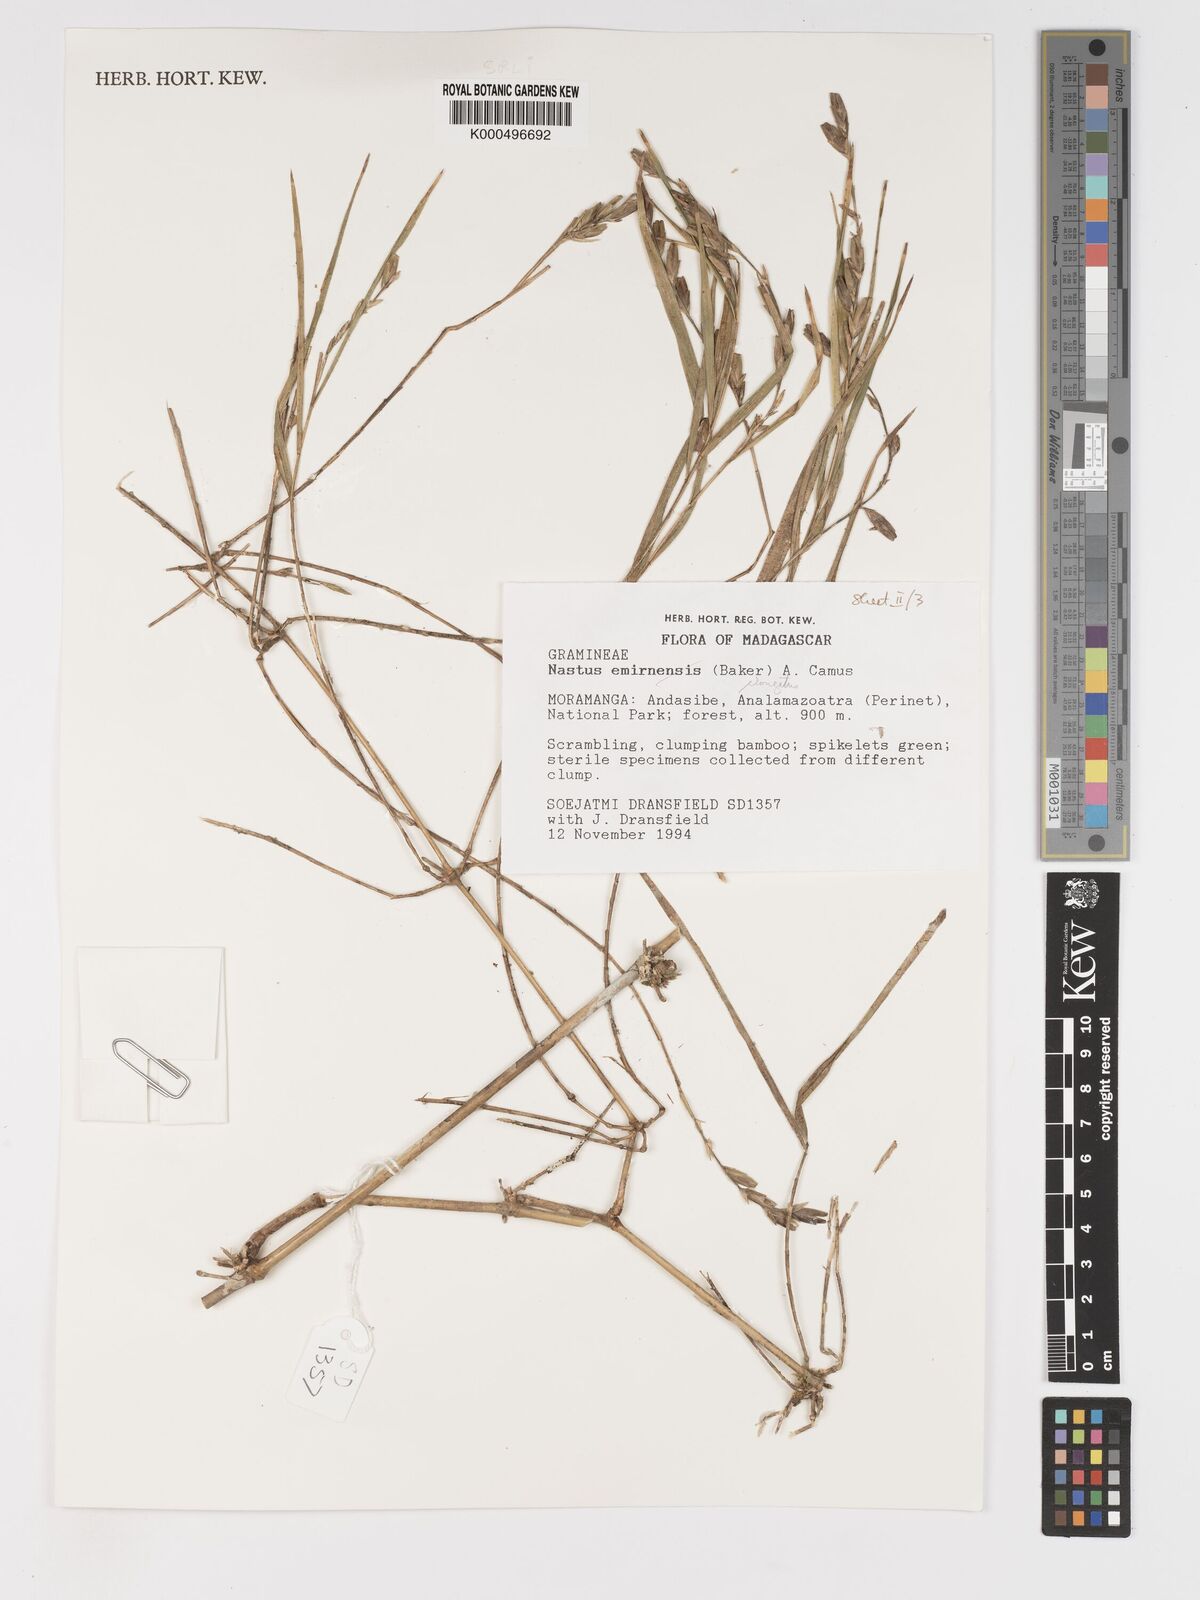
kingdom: Plantae
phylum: Tracheophyta
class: Liliopsida
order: Poales
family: Poaceae
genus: Nastus
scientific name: Nastus elongatus
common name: Spider bamboo
